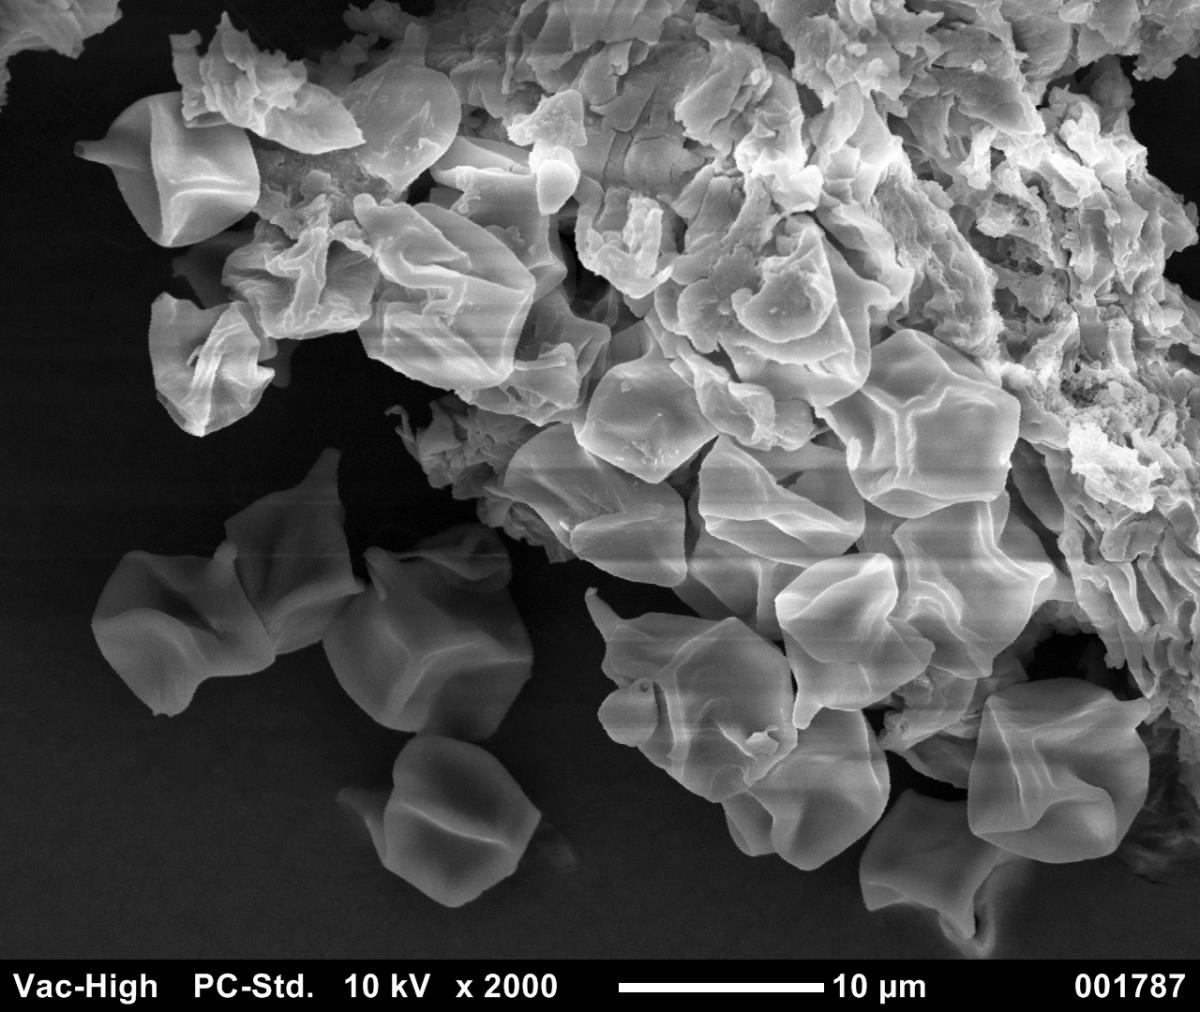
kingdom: Fungi
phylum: Basidiomycota
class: Agaricomycetes
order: Agaricales
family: Entolomataceae
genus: Entoloma
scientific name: Entoloma gasteromycetoides
